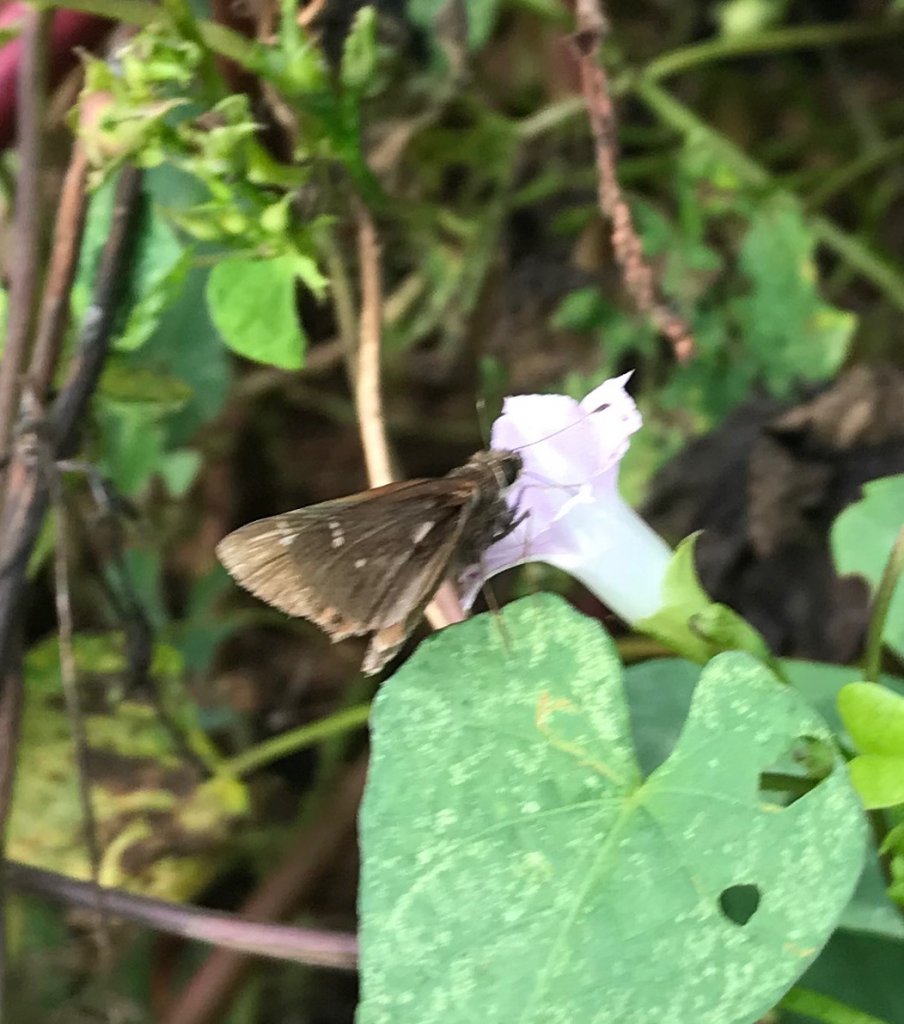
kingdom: Animalia
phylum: Arthropoda
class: Insecta
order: Lepidoptera
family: Hesperiidae
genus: Lerema
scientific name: Lerema accius
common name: Clouded Skipper
